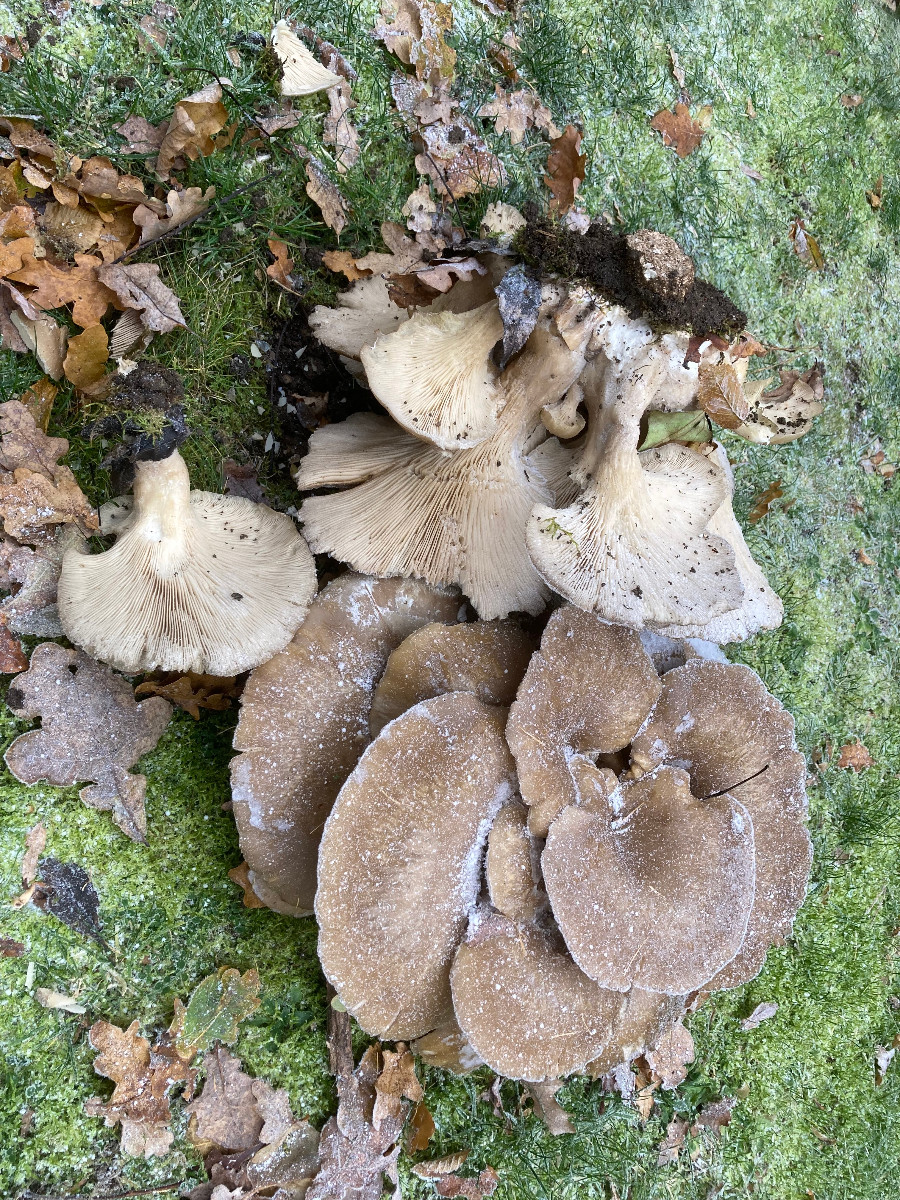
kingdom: Fungi
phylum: Basidiomycota
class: Agaricomycetes
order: Agaricales
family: Pleurotaceae
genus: Pleurotus
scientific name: Pleurotus ostreatus
